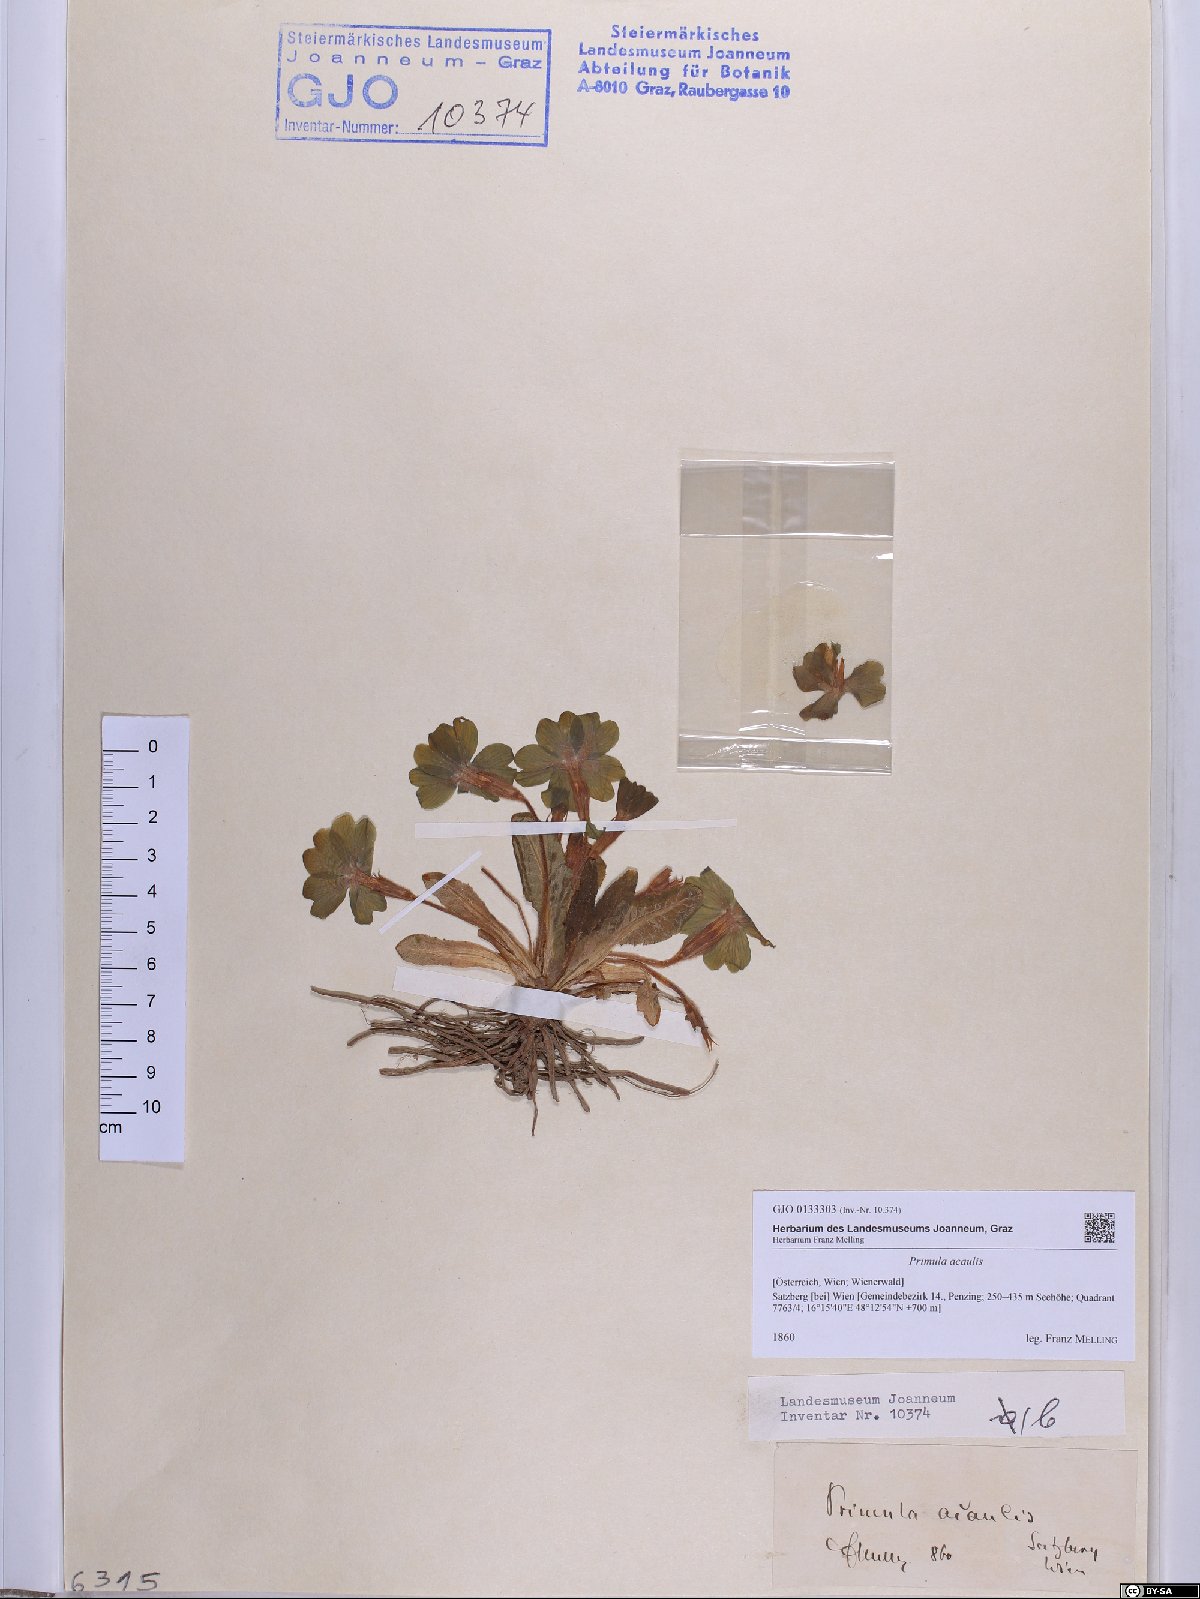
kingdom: Plantae
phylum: Tracheophyta
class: Magnoliopsida
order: Ericales
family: Primulaceae
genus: Primula
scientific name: Primula vulgaris
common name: Primrose
